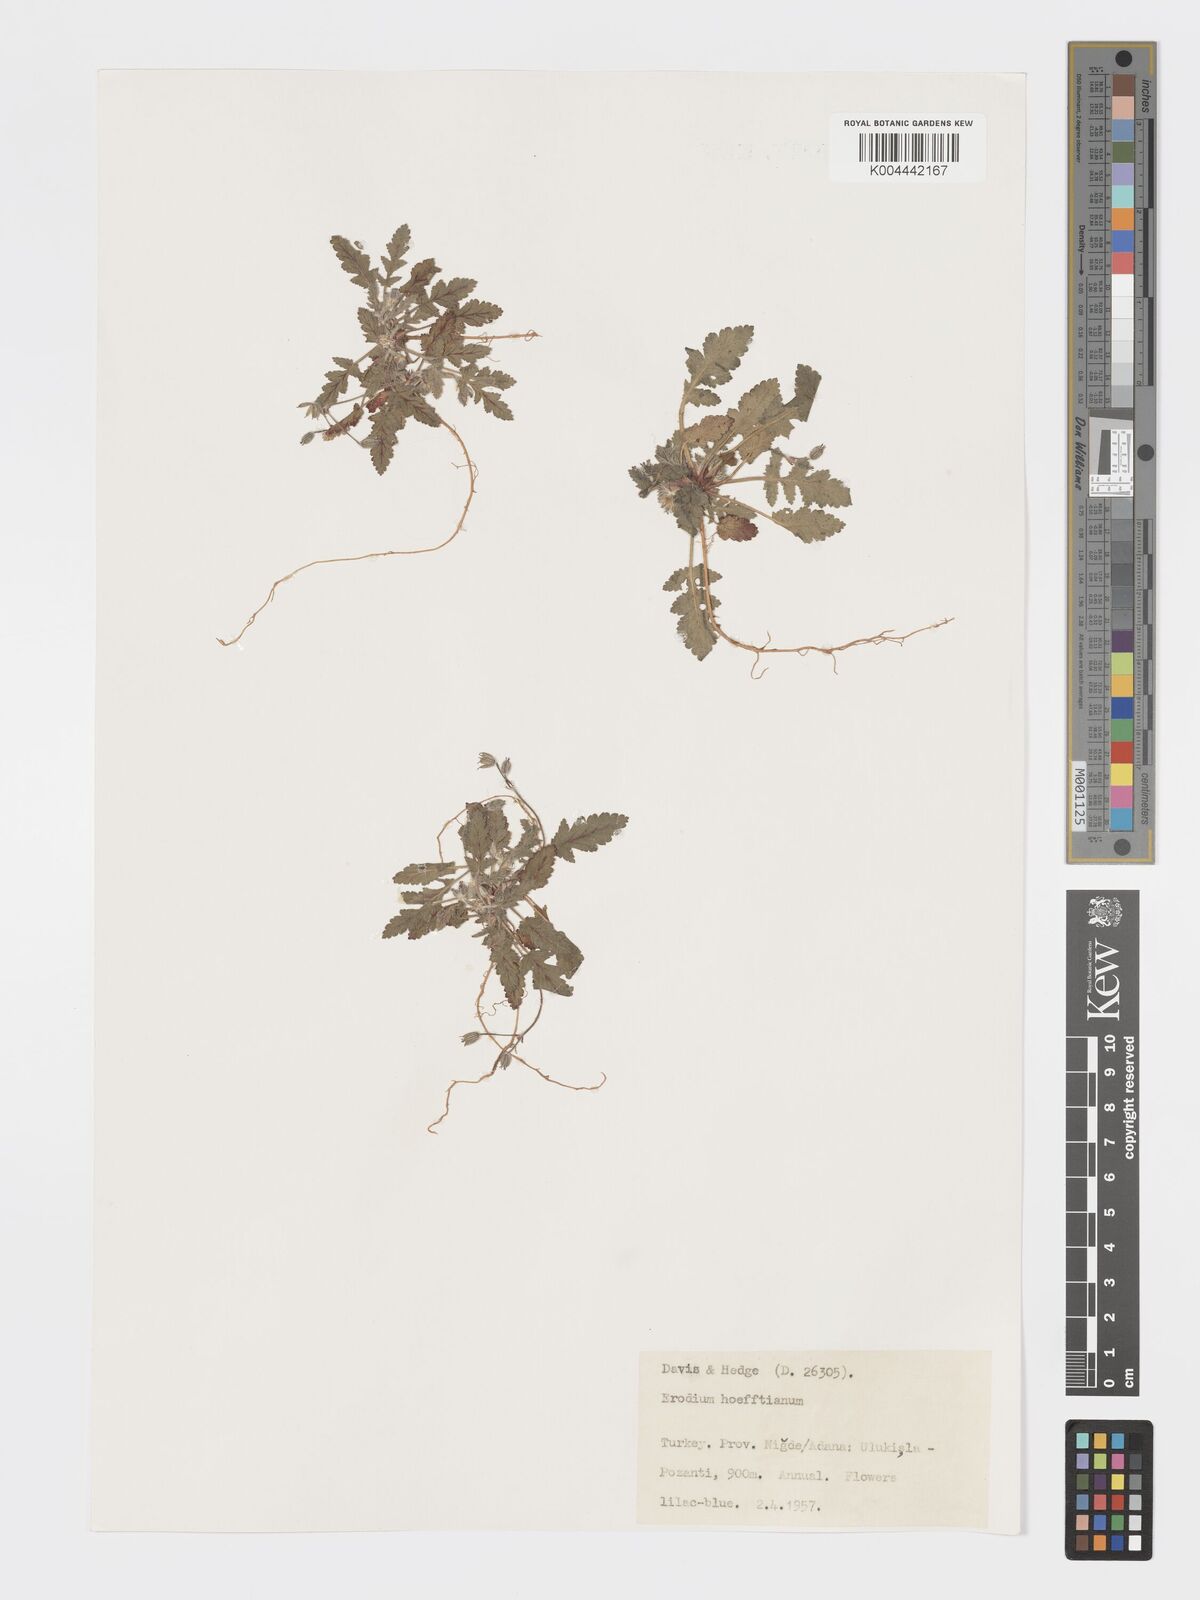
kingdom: Plantae
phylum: Tracheophyta
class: Magnoliopsida
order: Geraniales
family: Geraniaceae
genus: Erodium
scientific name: Erodium hoefftianum
